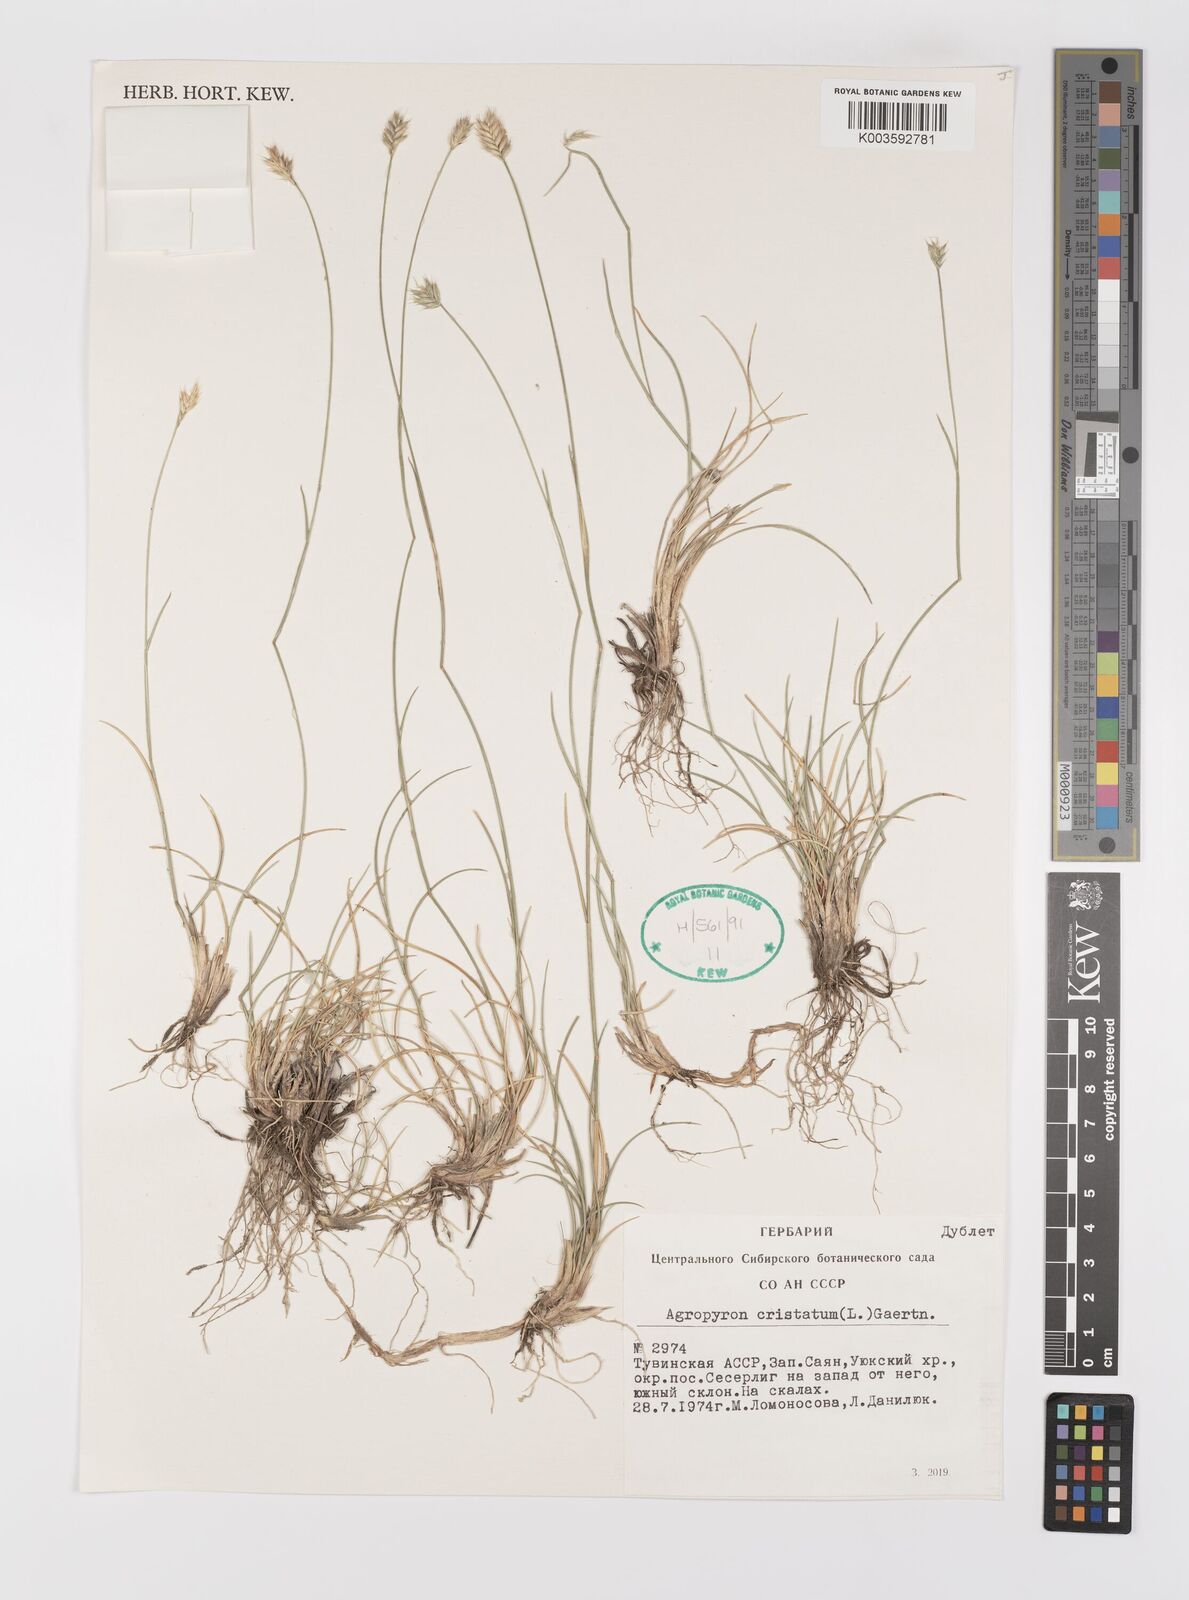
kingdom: Plantae
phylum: Tracheophyta
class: Liliopsida
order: Poales
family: Poaceae
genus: Agropyron
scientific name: Agropyron cristatum
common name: Crested wheatgrass
